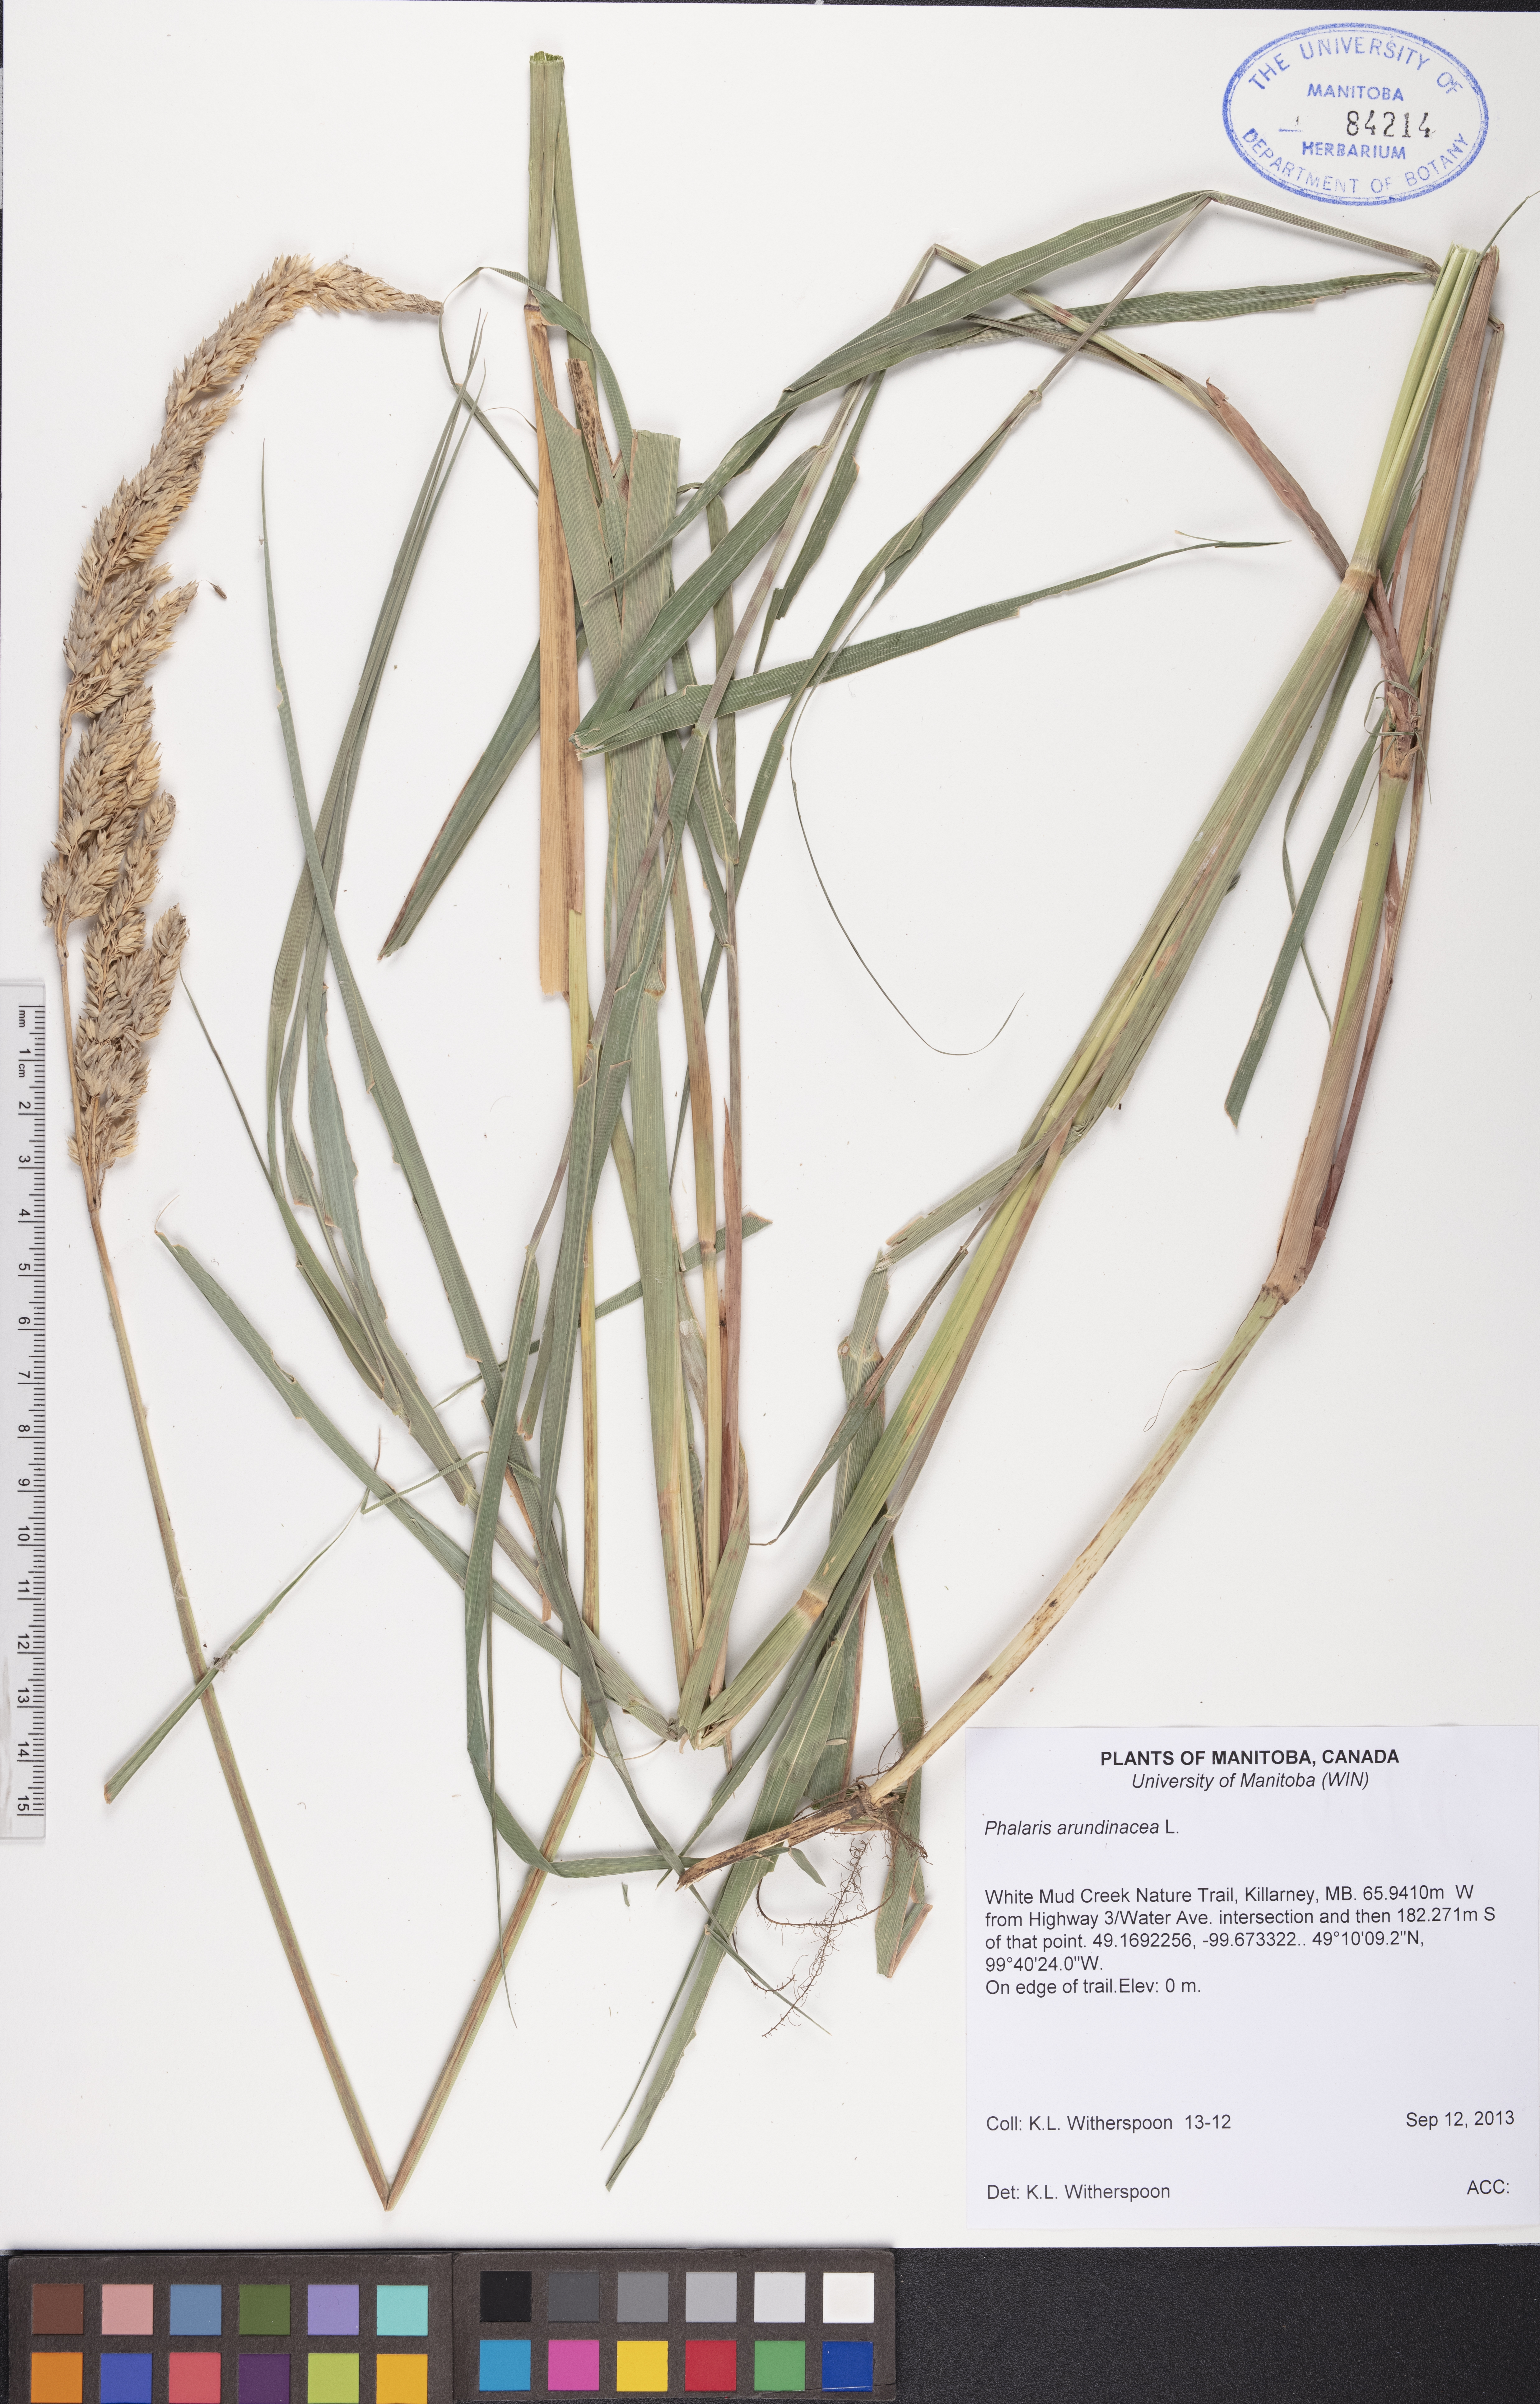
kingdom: Plantae
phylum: Tracheophyta
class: Liliopsida
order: Poales
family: Poaceae
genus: Phalaris
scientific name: Phalaris arundinacea
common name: Reed canary-grass
